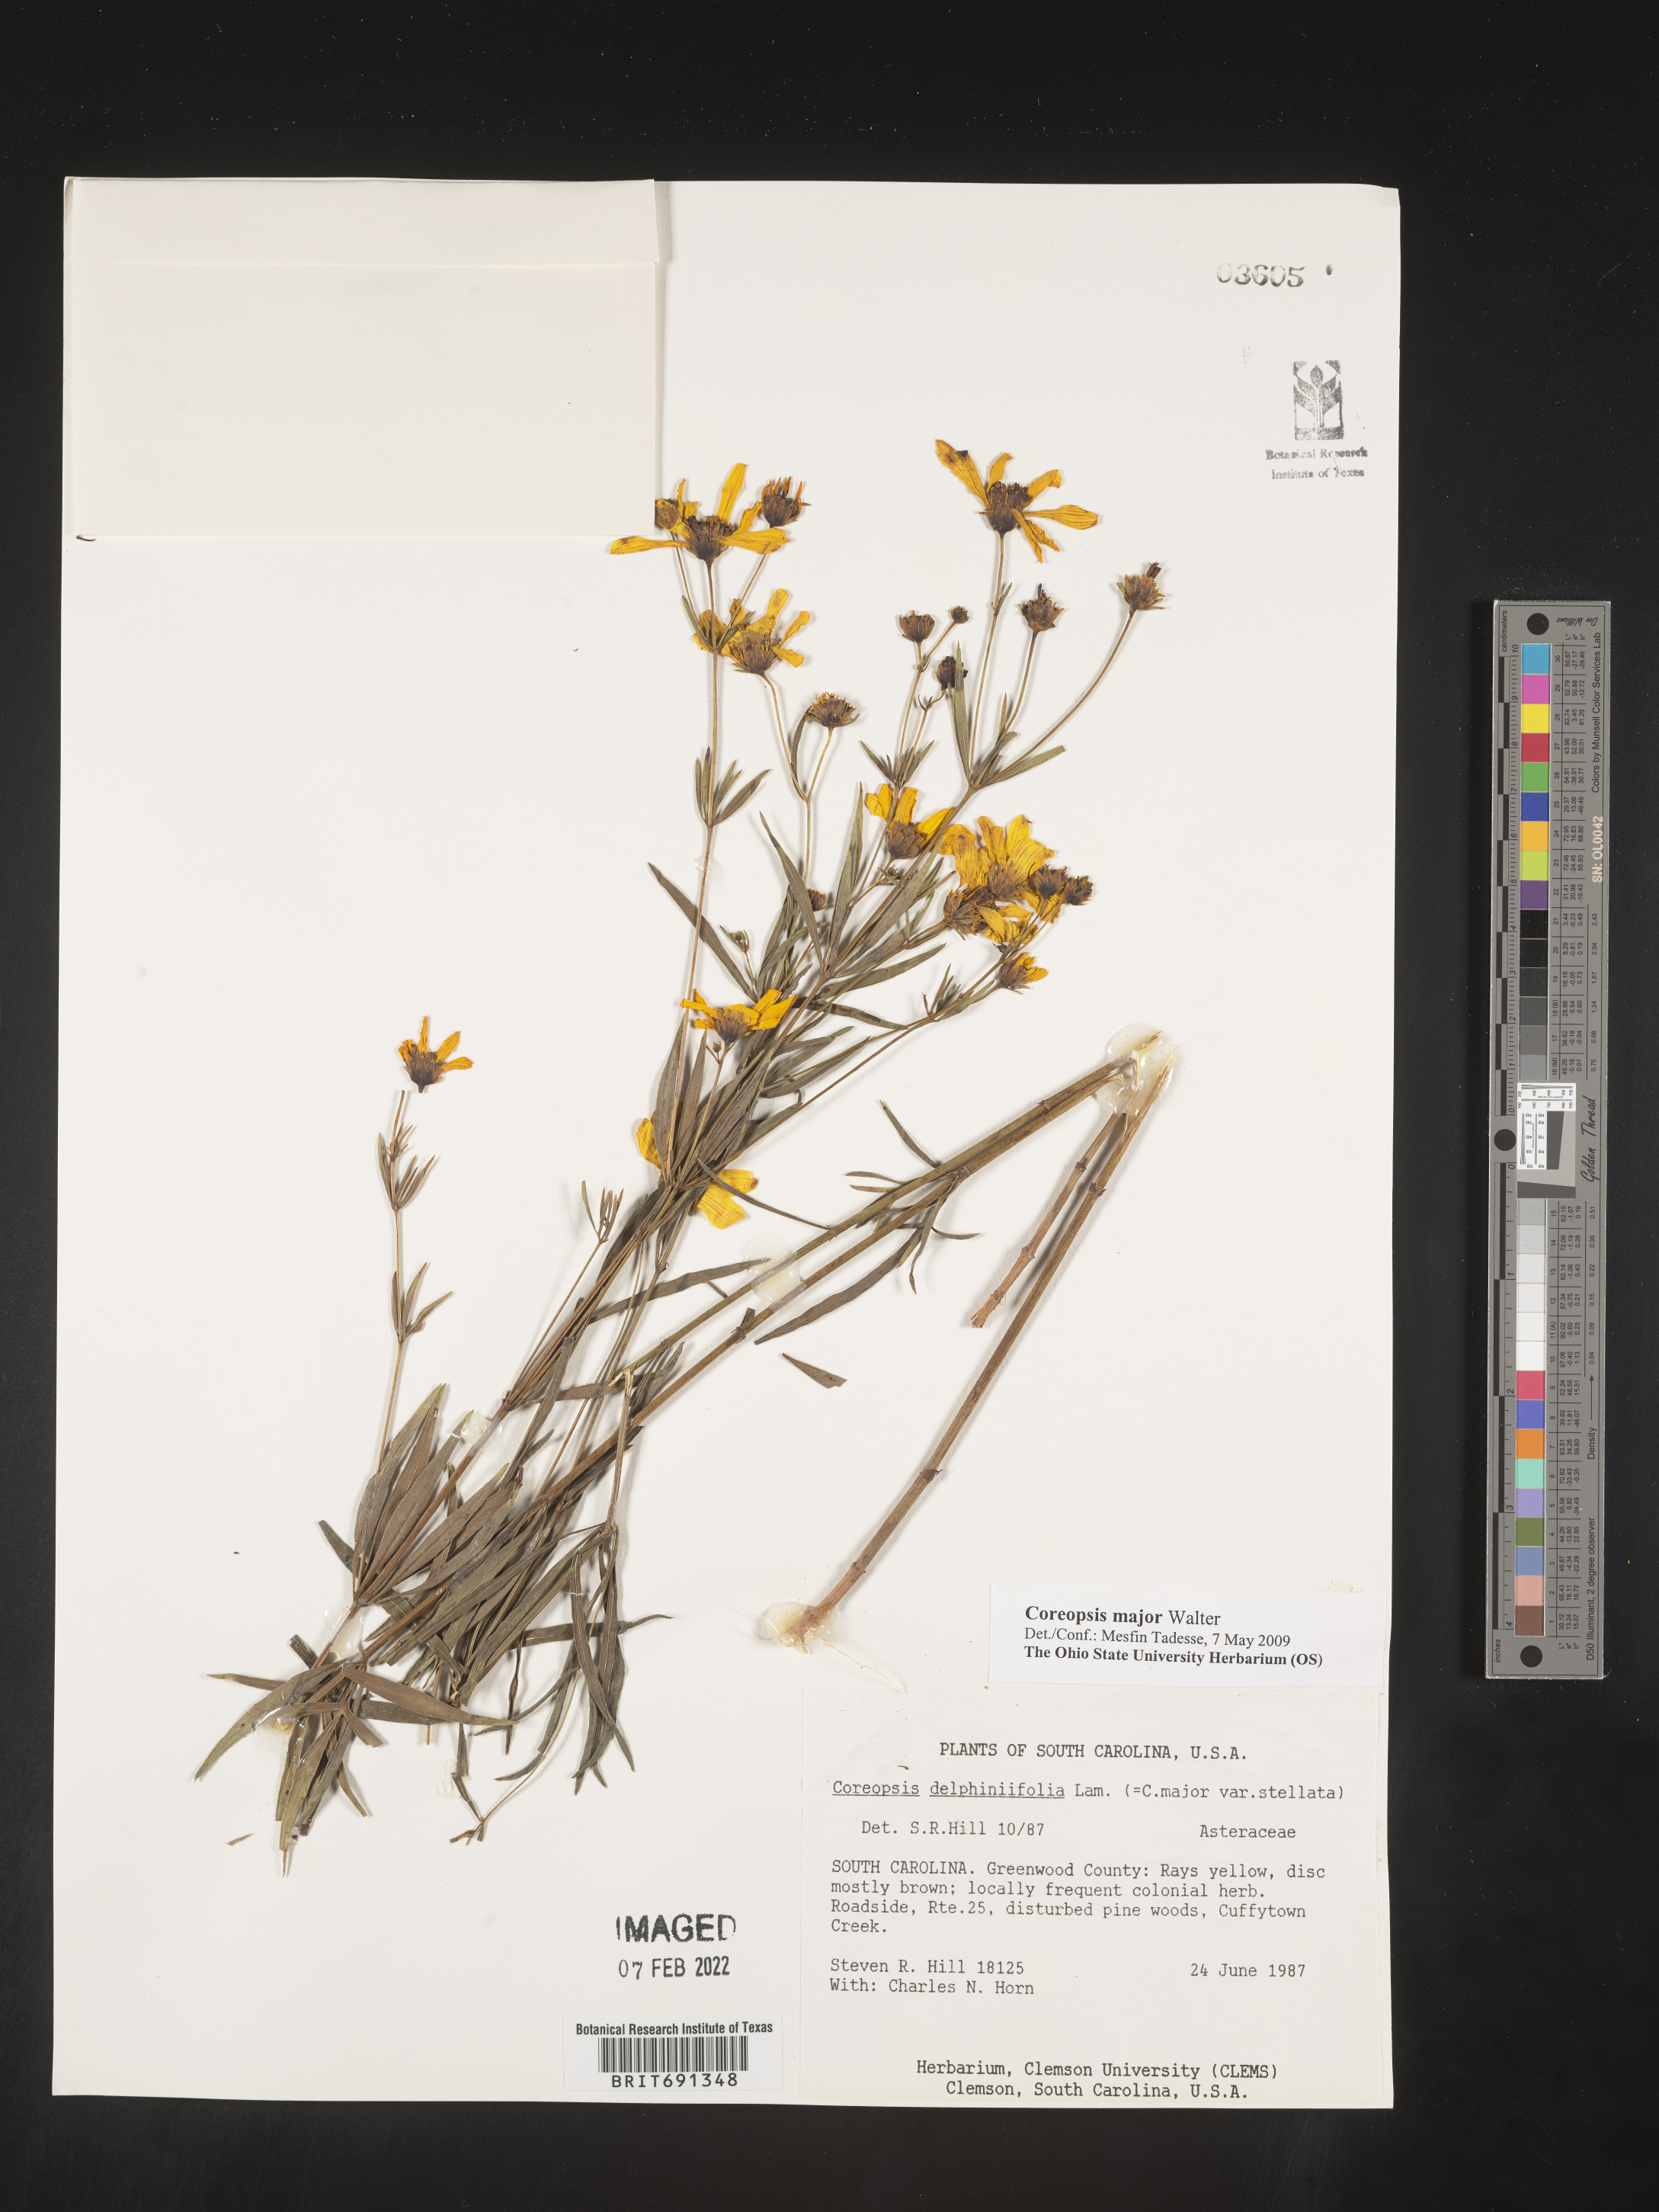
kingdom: Plantae
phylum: Tracheophyta
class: Magnoliopsida
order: Asterales
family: Asteraceae
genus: Coreopsis
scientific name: Coreopsis major
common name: Forest tickseed
